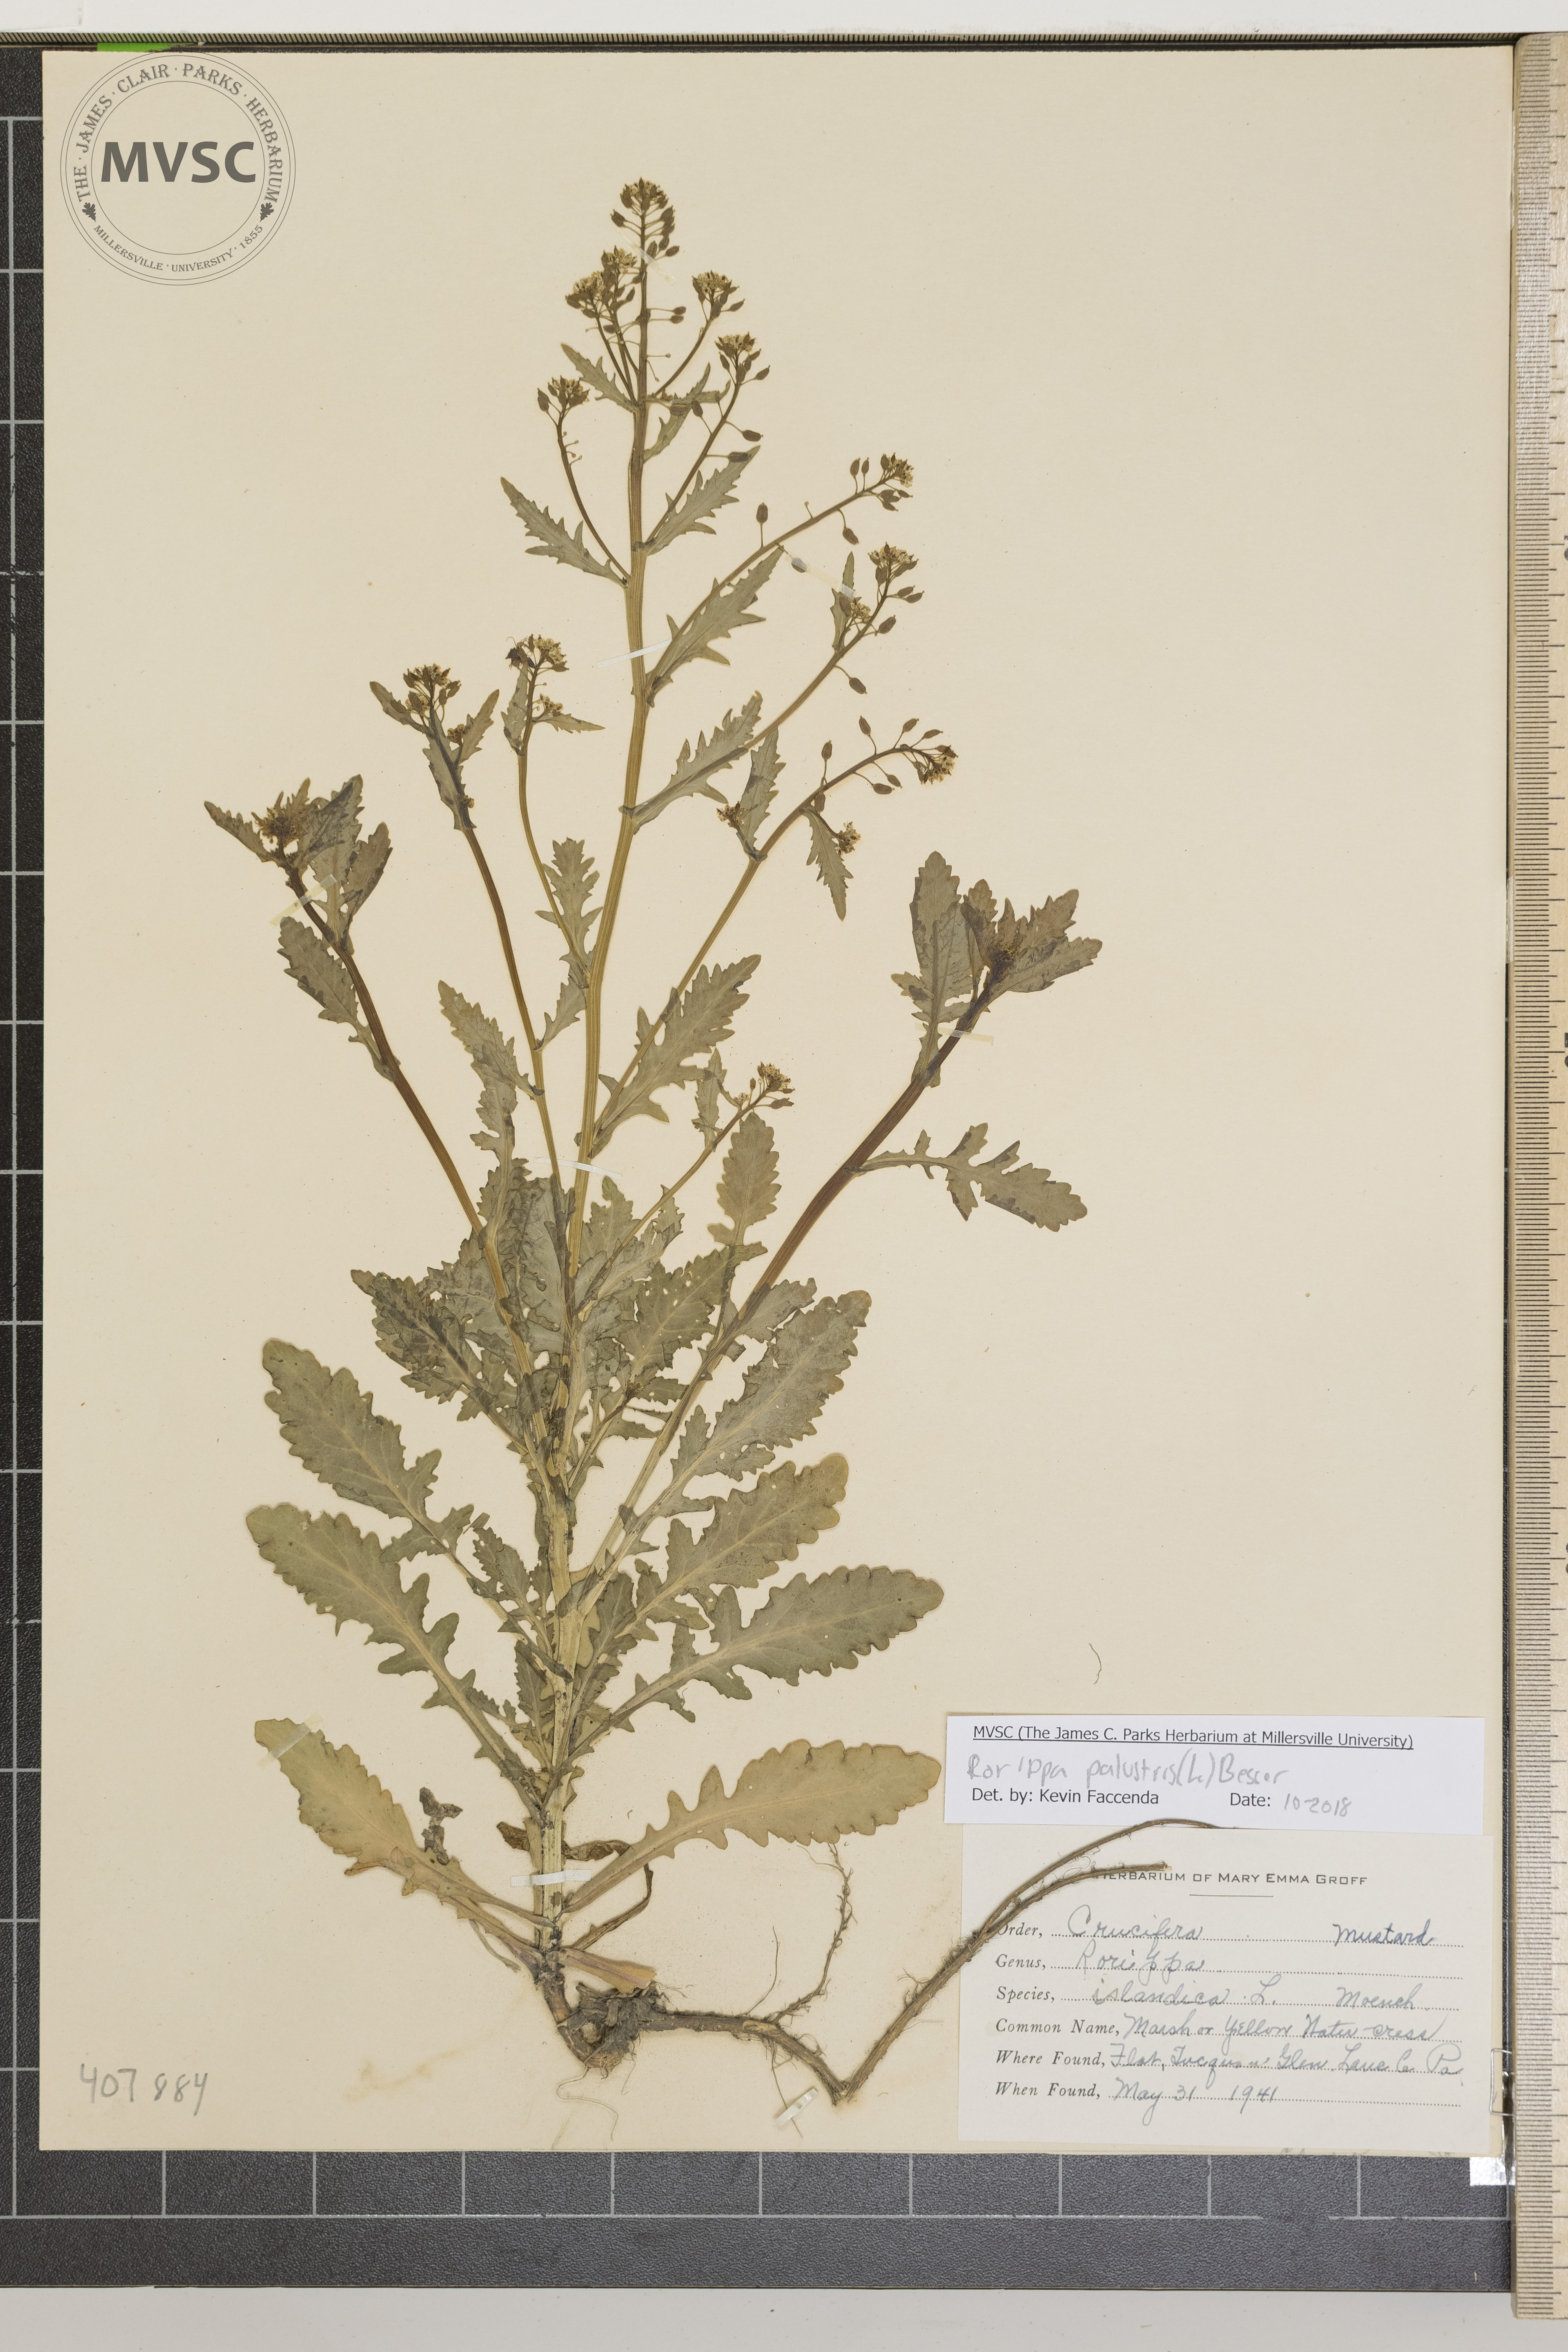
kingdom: Plantae
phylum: Tracheophyta
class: Magnoliopsida
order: Brassicales
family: Brassicaceae
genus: Rorippa
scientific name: Rorippa palustris
